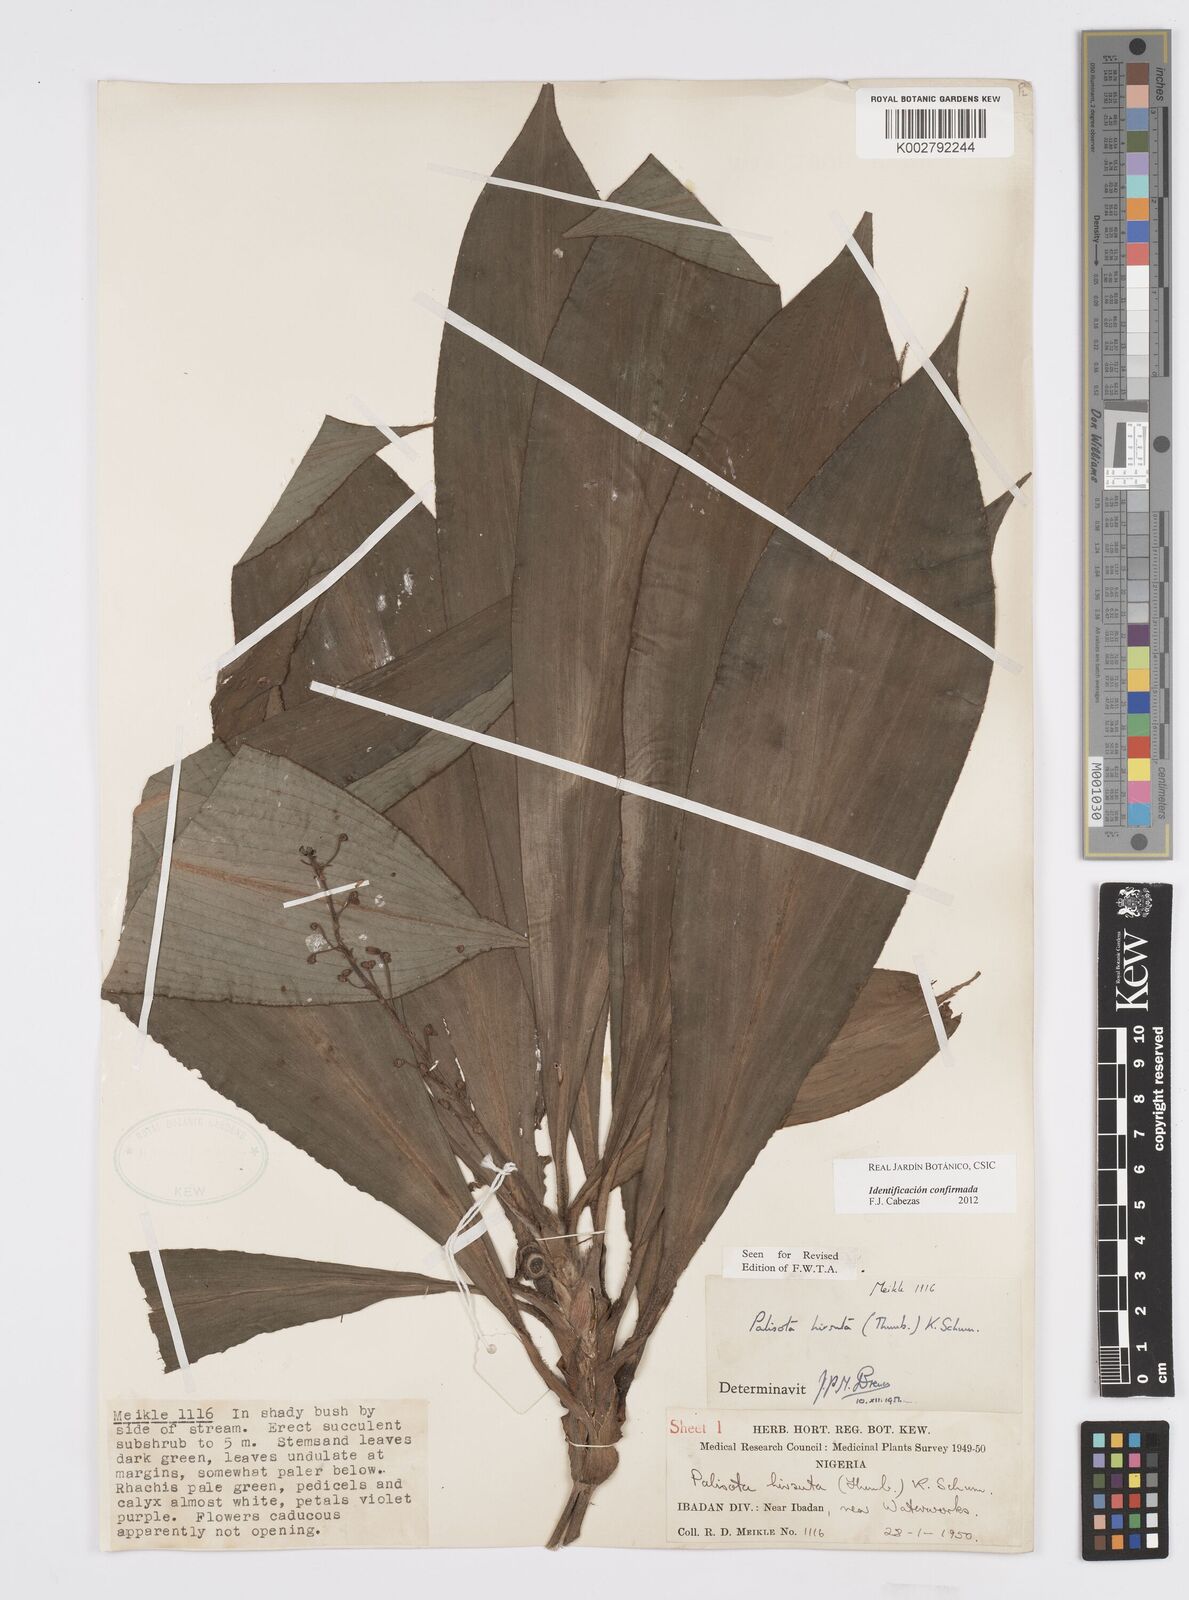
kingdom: Plantae
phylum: Tracheophyta
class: Liliopsida
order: Commelinales
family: Commelinaceae
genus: Palisota
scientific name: Palisota hirsuta
